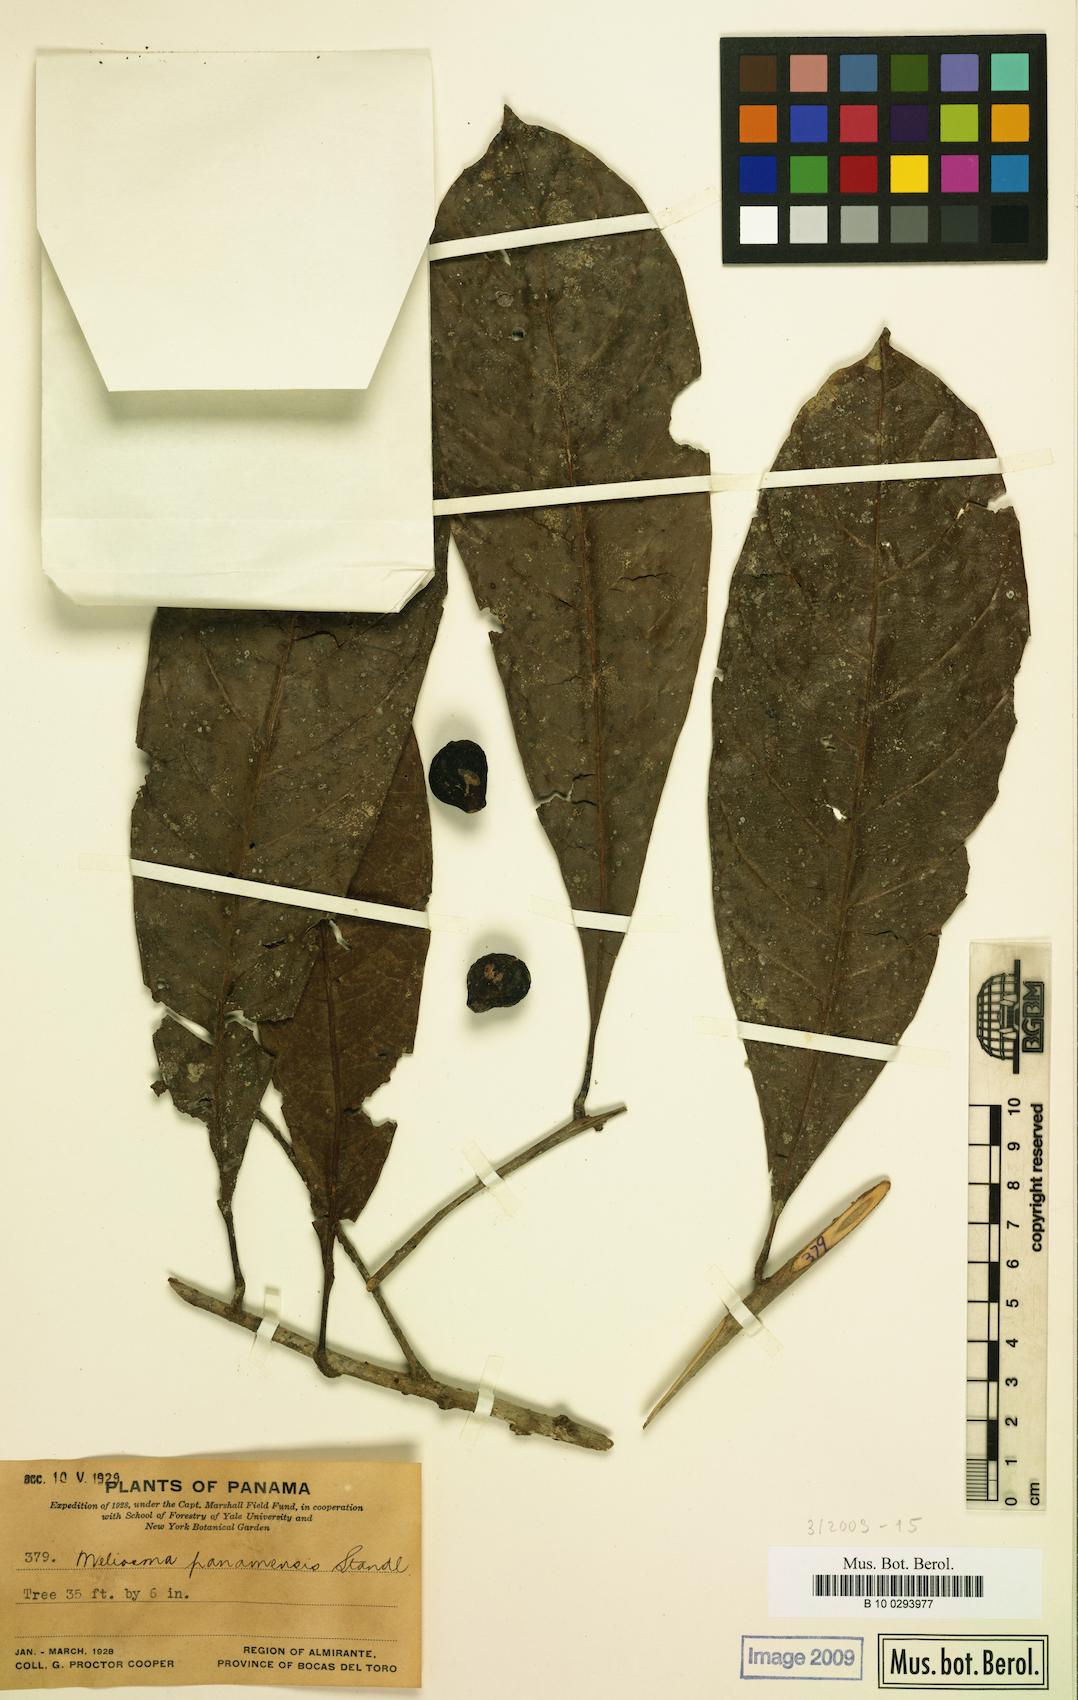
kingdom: Plantae
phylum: Tracheophyta
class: Magnoliopsida
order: Proteales
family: Sabiaceae
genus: Meliosma
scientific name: Meliosma glabrata
